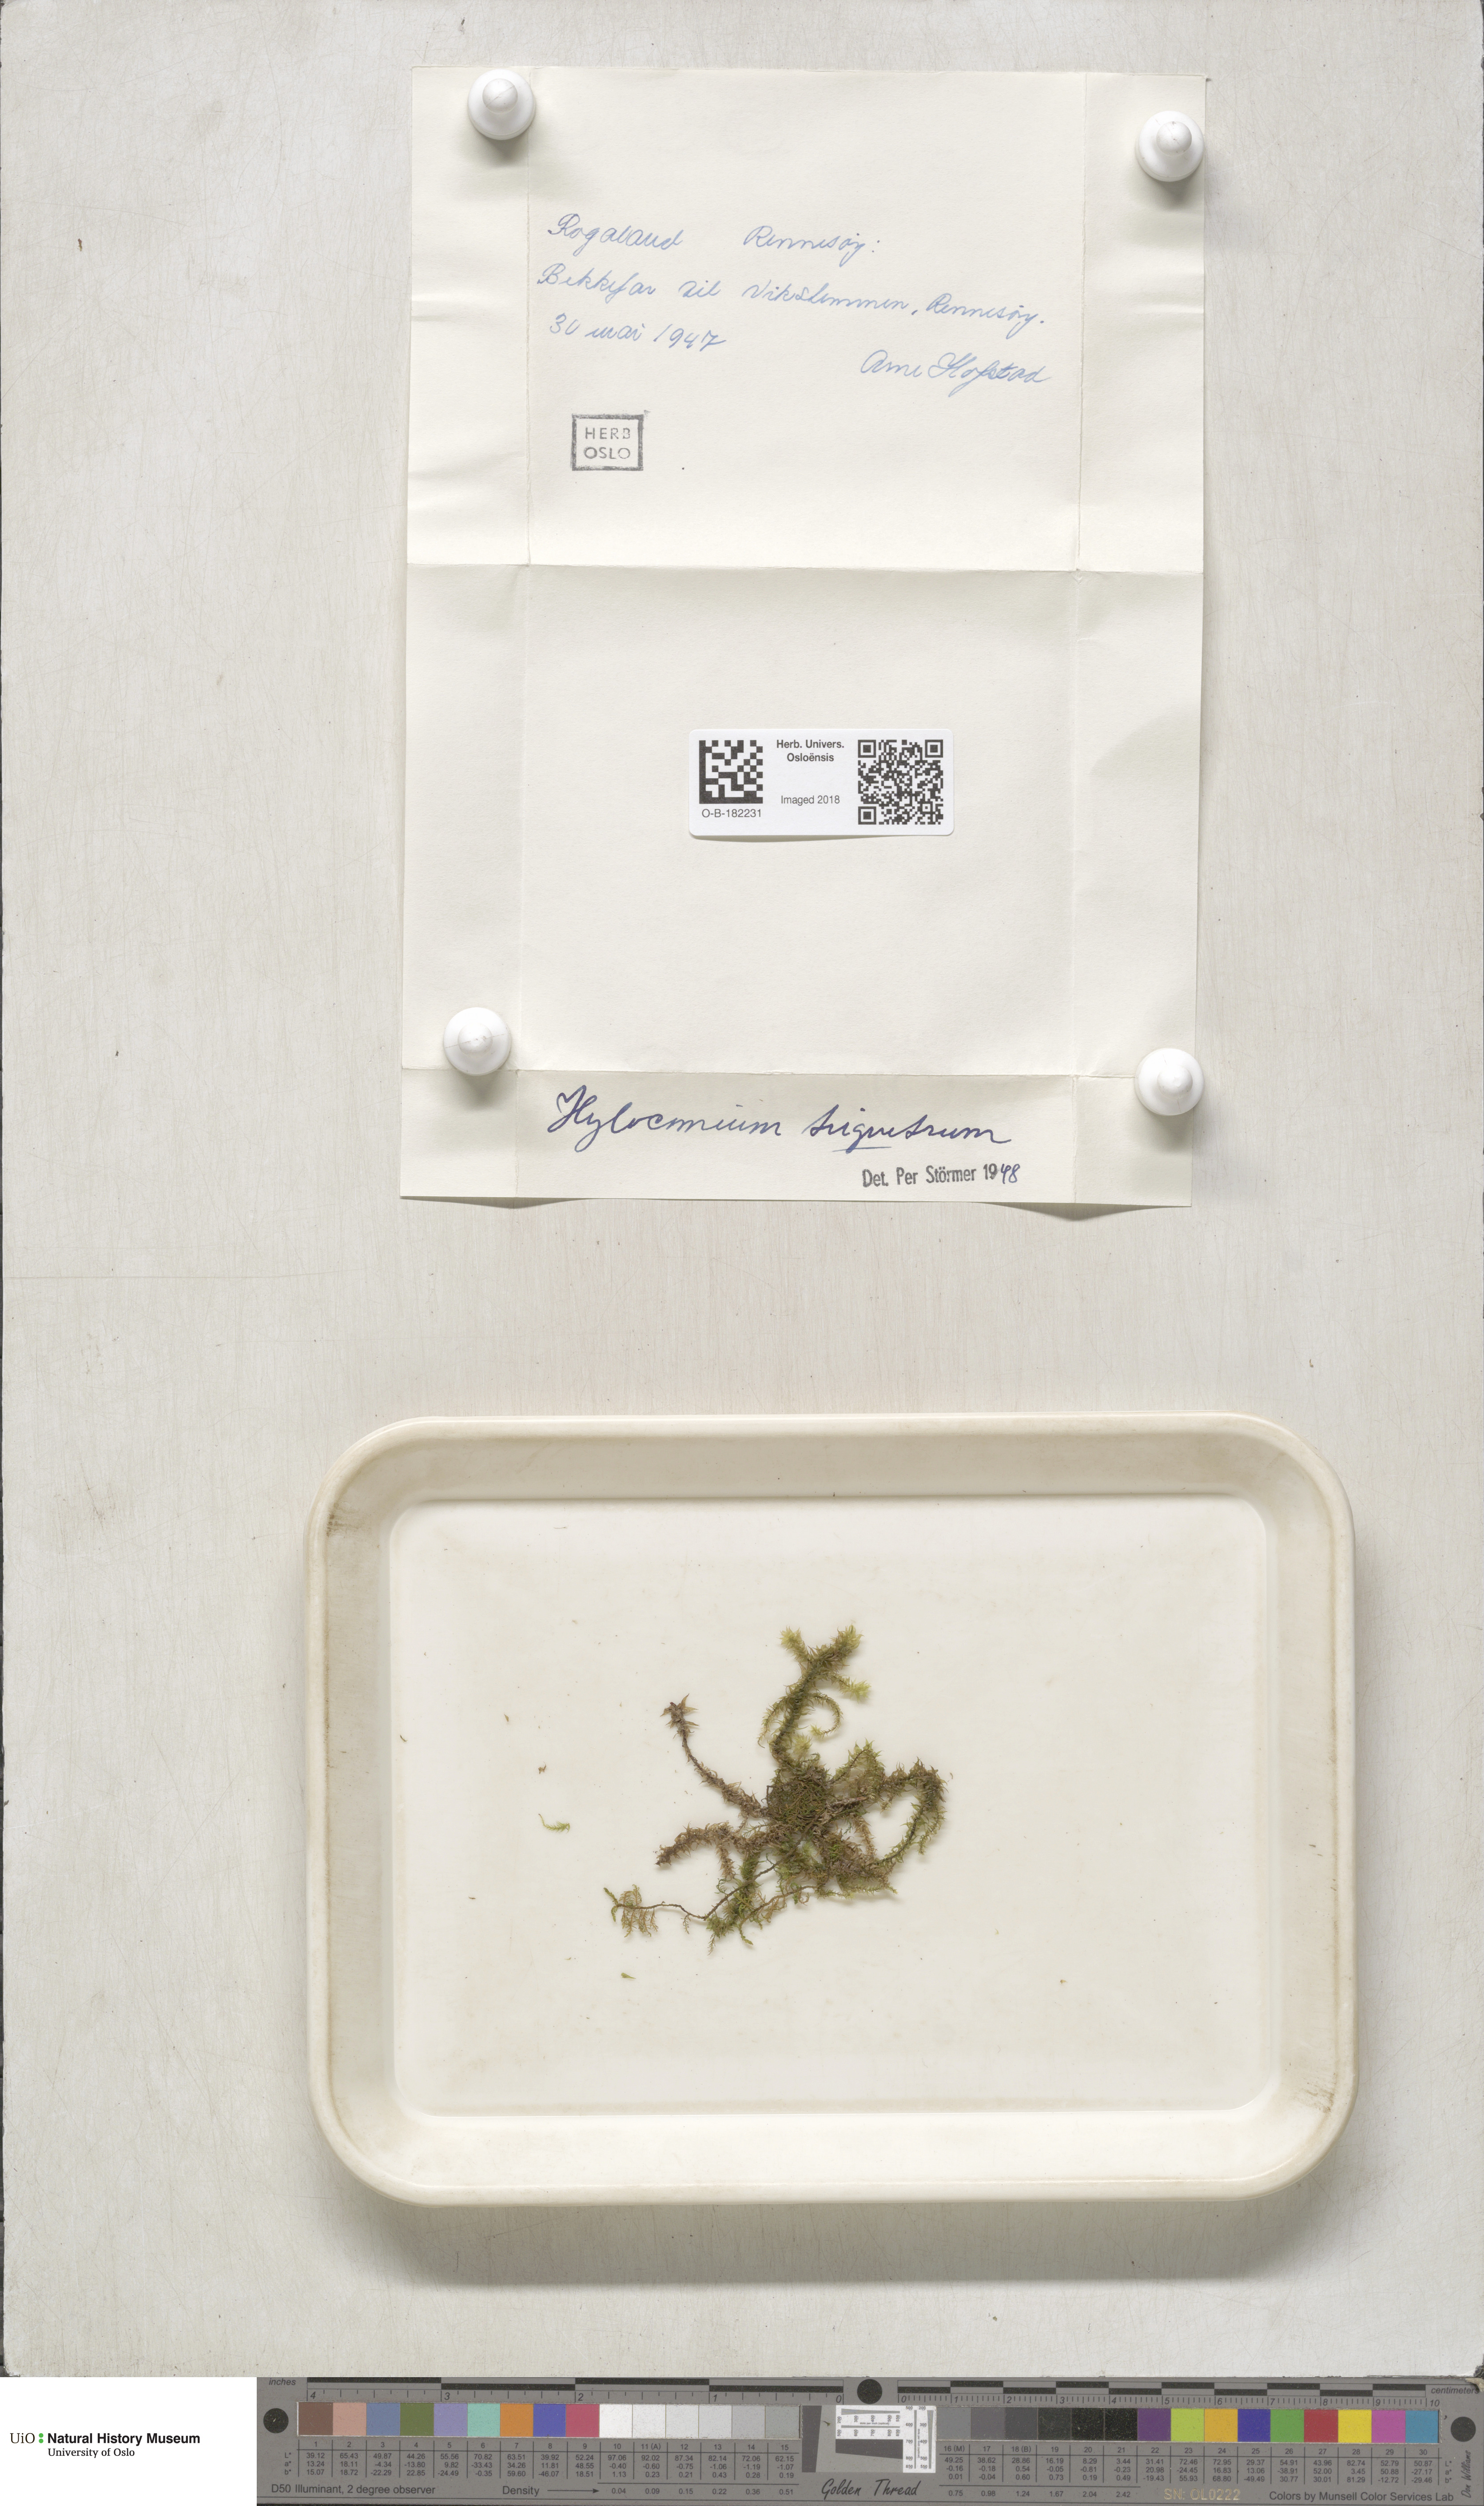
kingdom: Plantae
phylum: Bryophyta
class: Bryopsida
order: Hypnales
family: Hylocomiaceae
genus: Hylocomiadelphus
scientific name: Hylocomiadelphus triquetrus
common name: Rough goose neck moss
